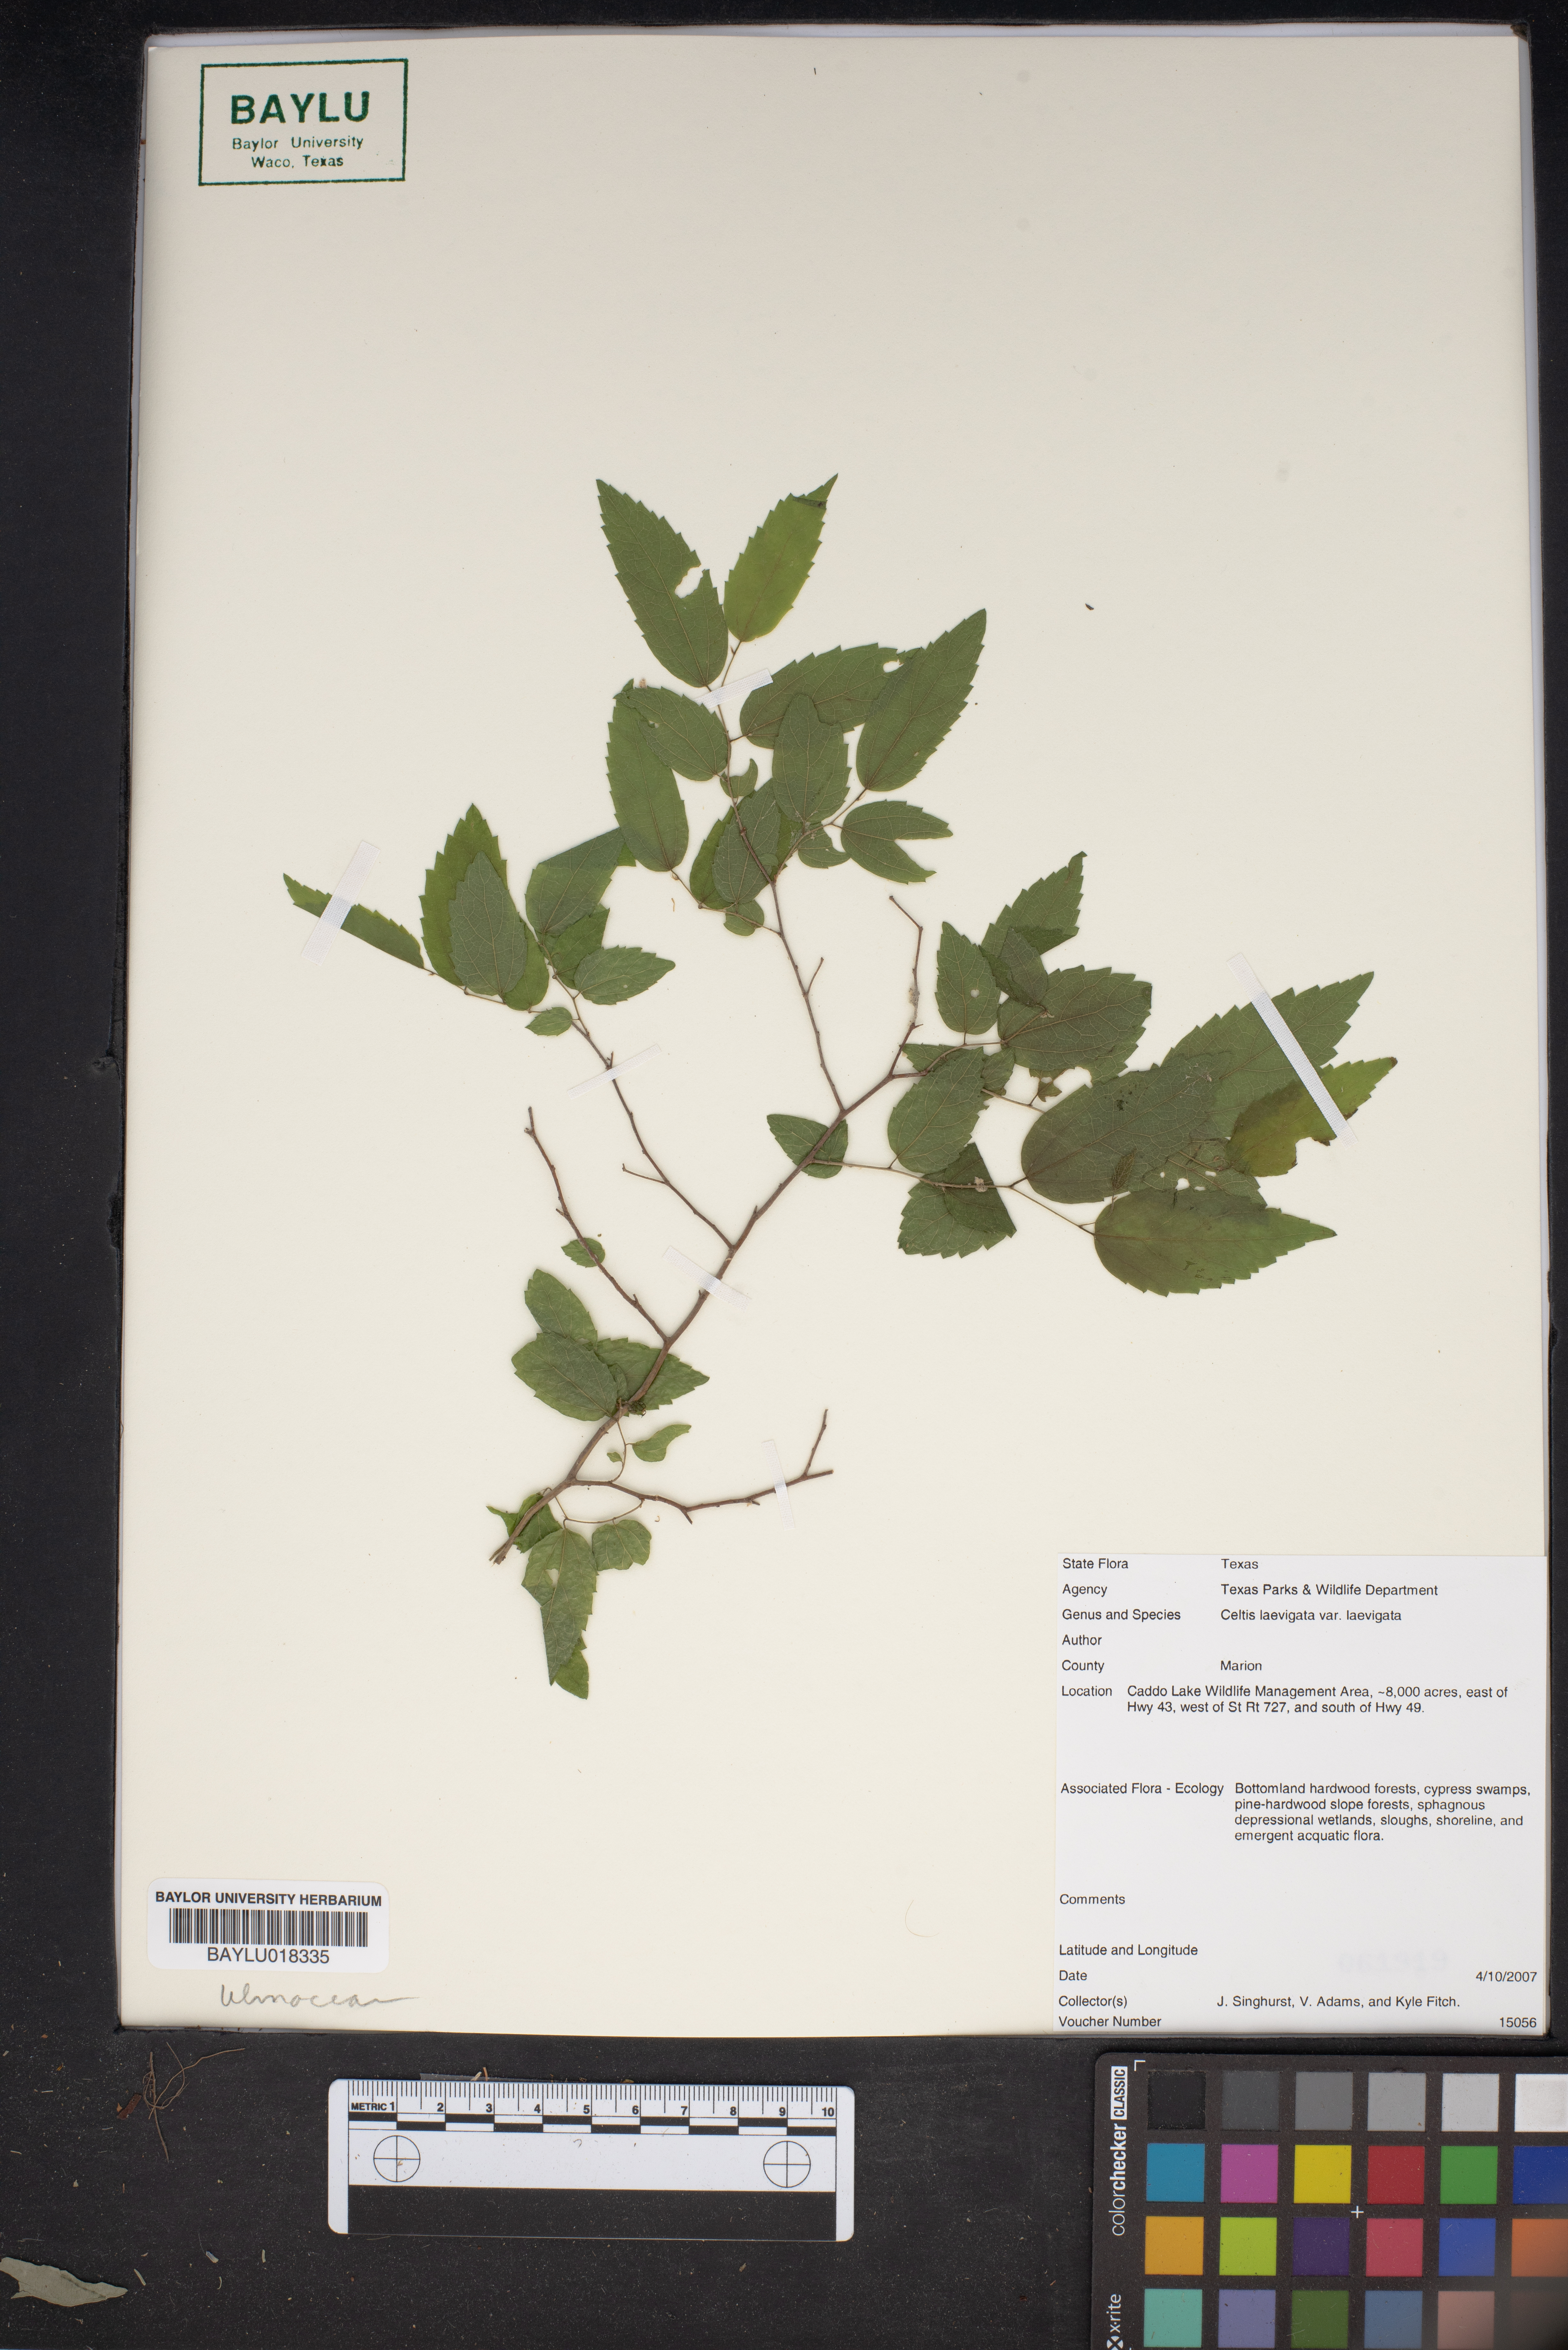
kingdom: Plantae
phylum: Tracheophyta
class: Magnoliopsida
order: Rosales
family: Cannabaceae
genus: Celtis
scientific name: Celtis laevigata
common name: Sugarberry
